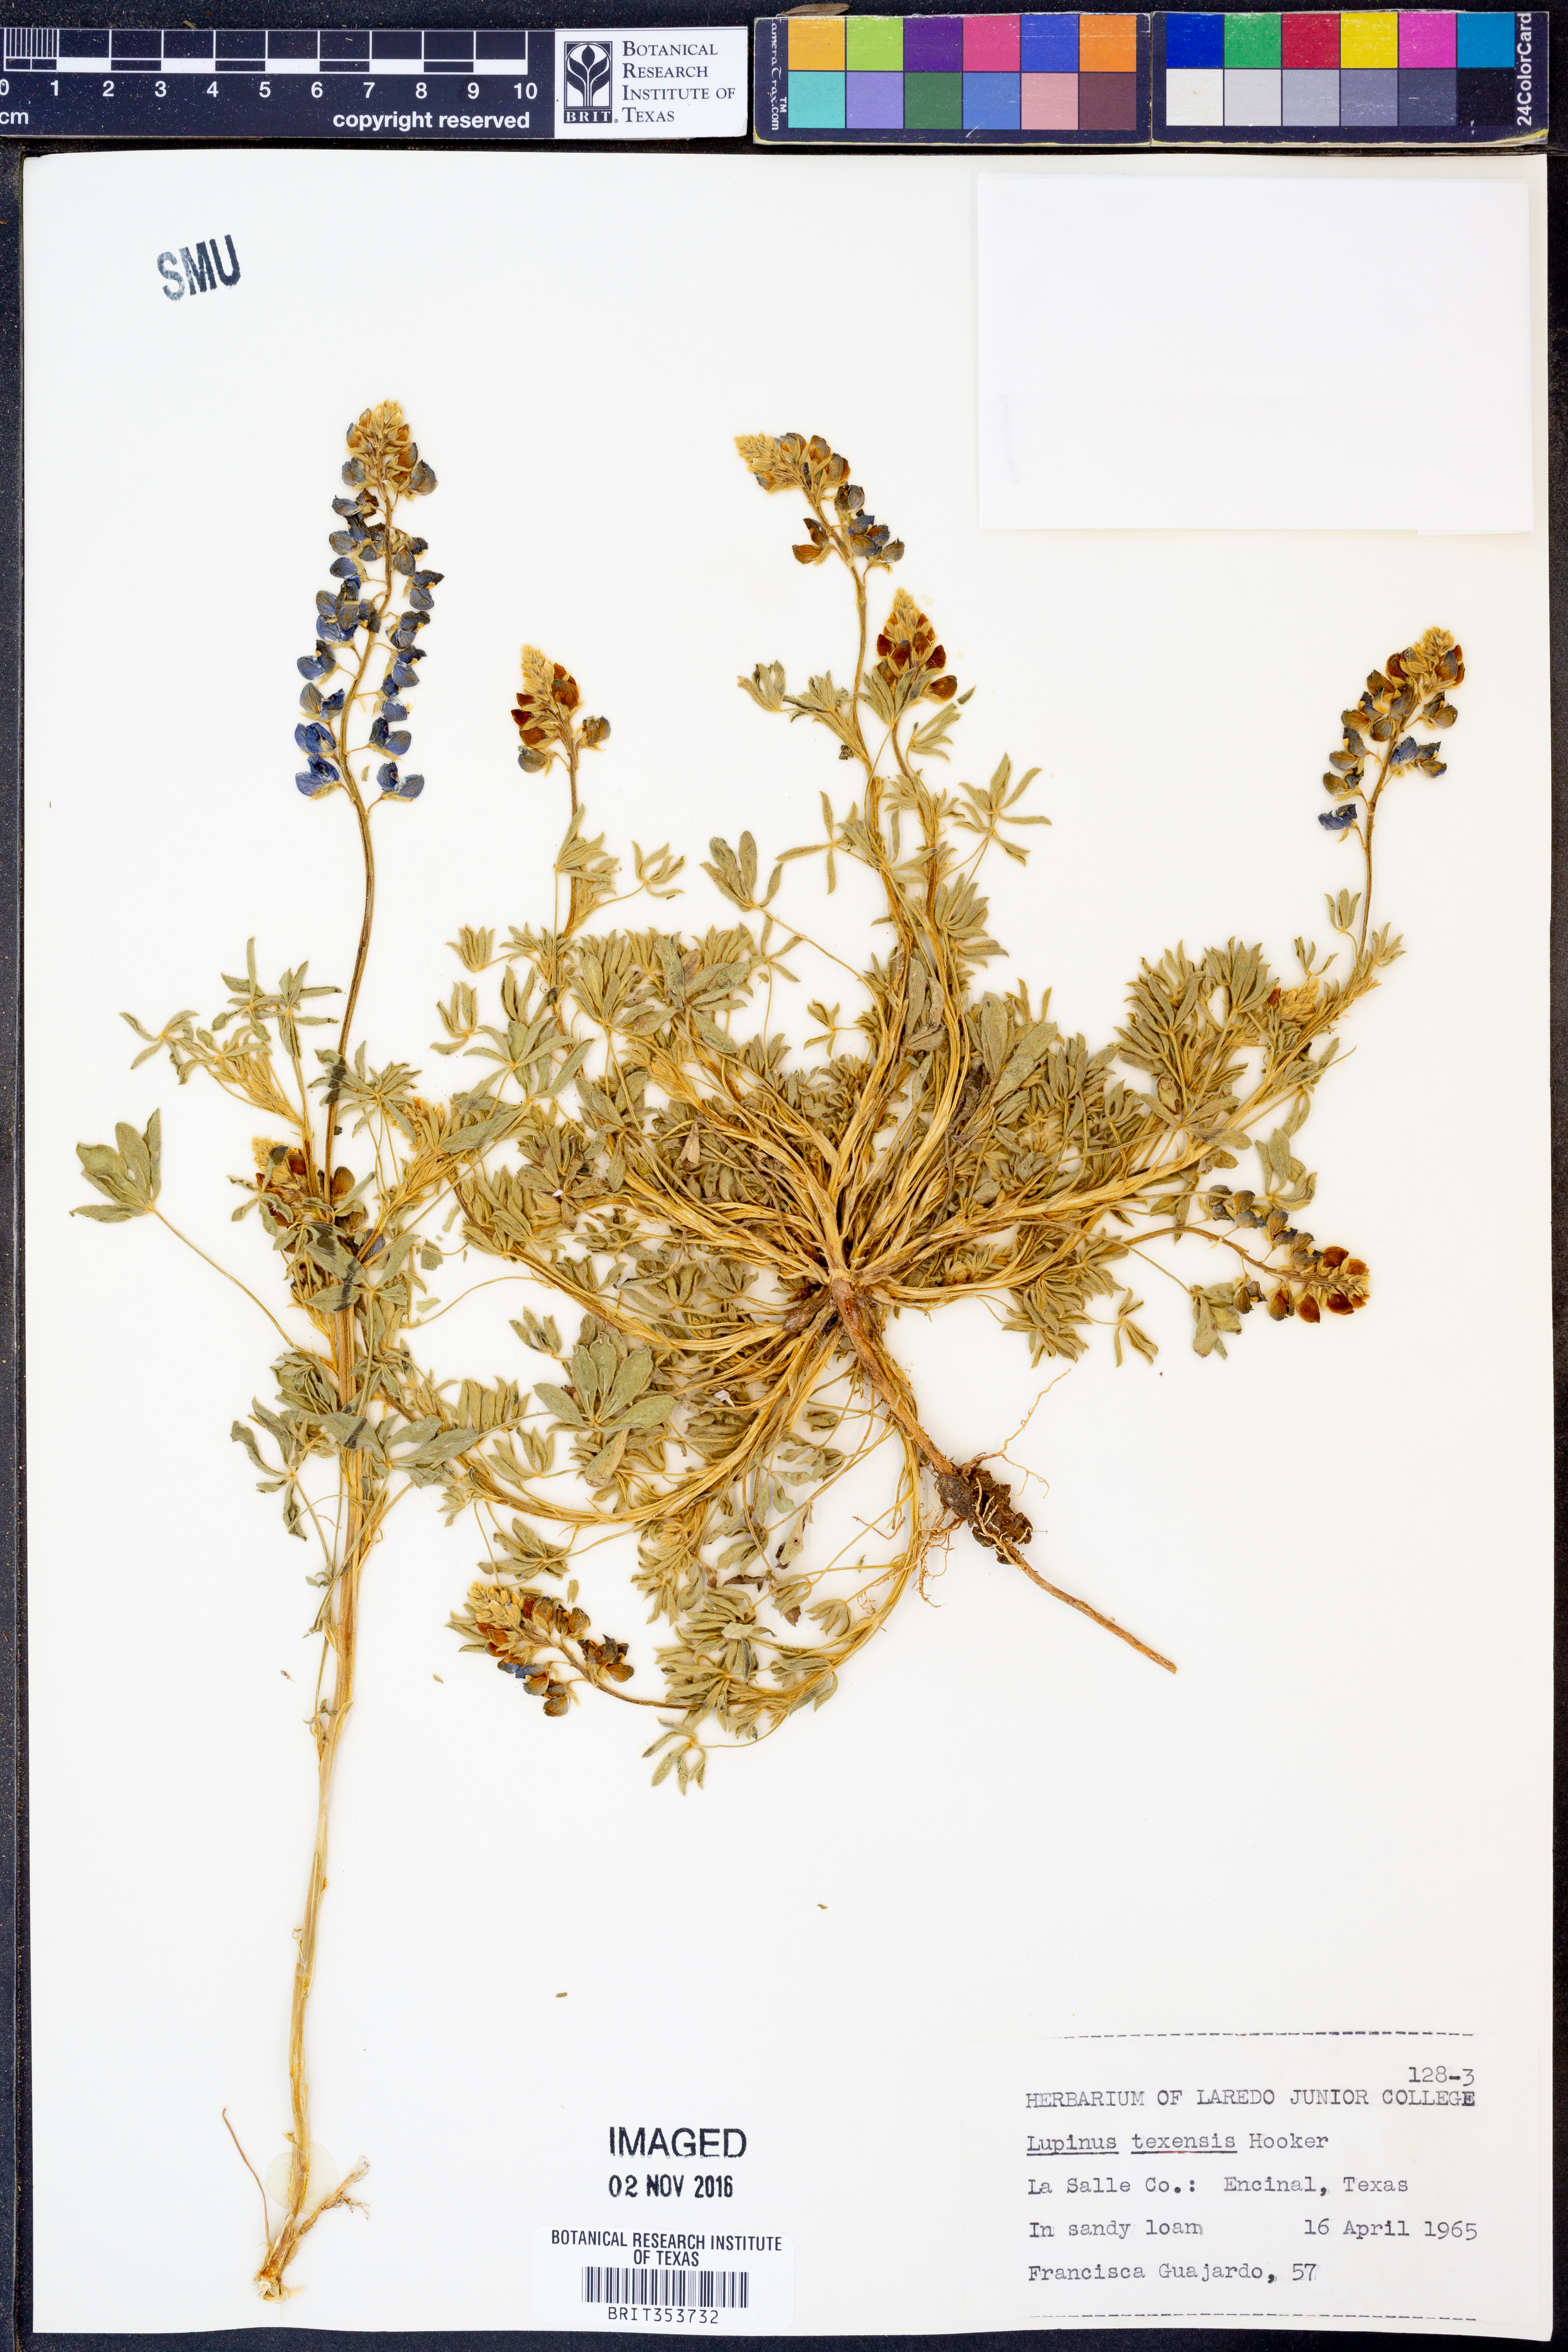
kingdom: Plantae
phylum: Tracheophyta
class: Magnoliopsida
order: Fabales
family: Fabaceae
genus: Lupinus
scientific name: Lupinus texensis
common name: Texas bluebonnet
